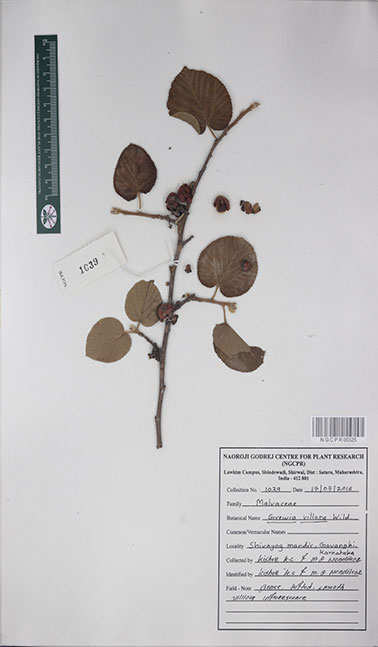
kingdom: Plantae
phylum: Tracheophyta
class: Magnoliopsida
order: Malvales
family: Malvaceae
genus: Grewia
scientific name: Grewia villosa
